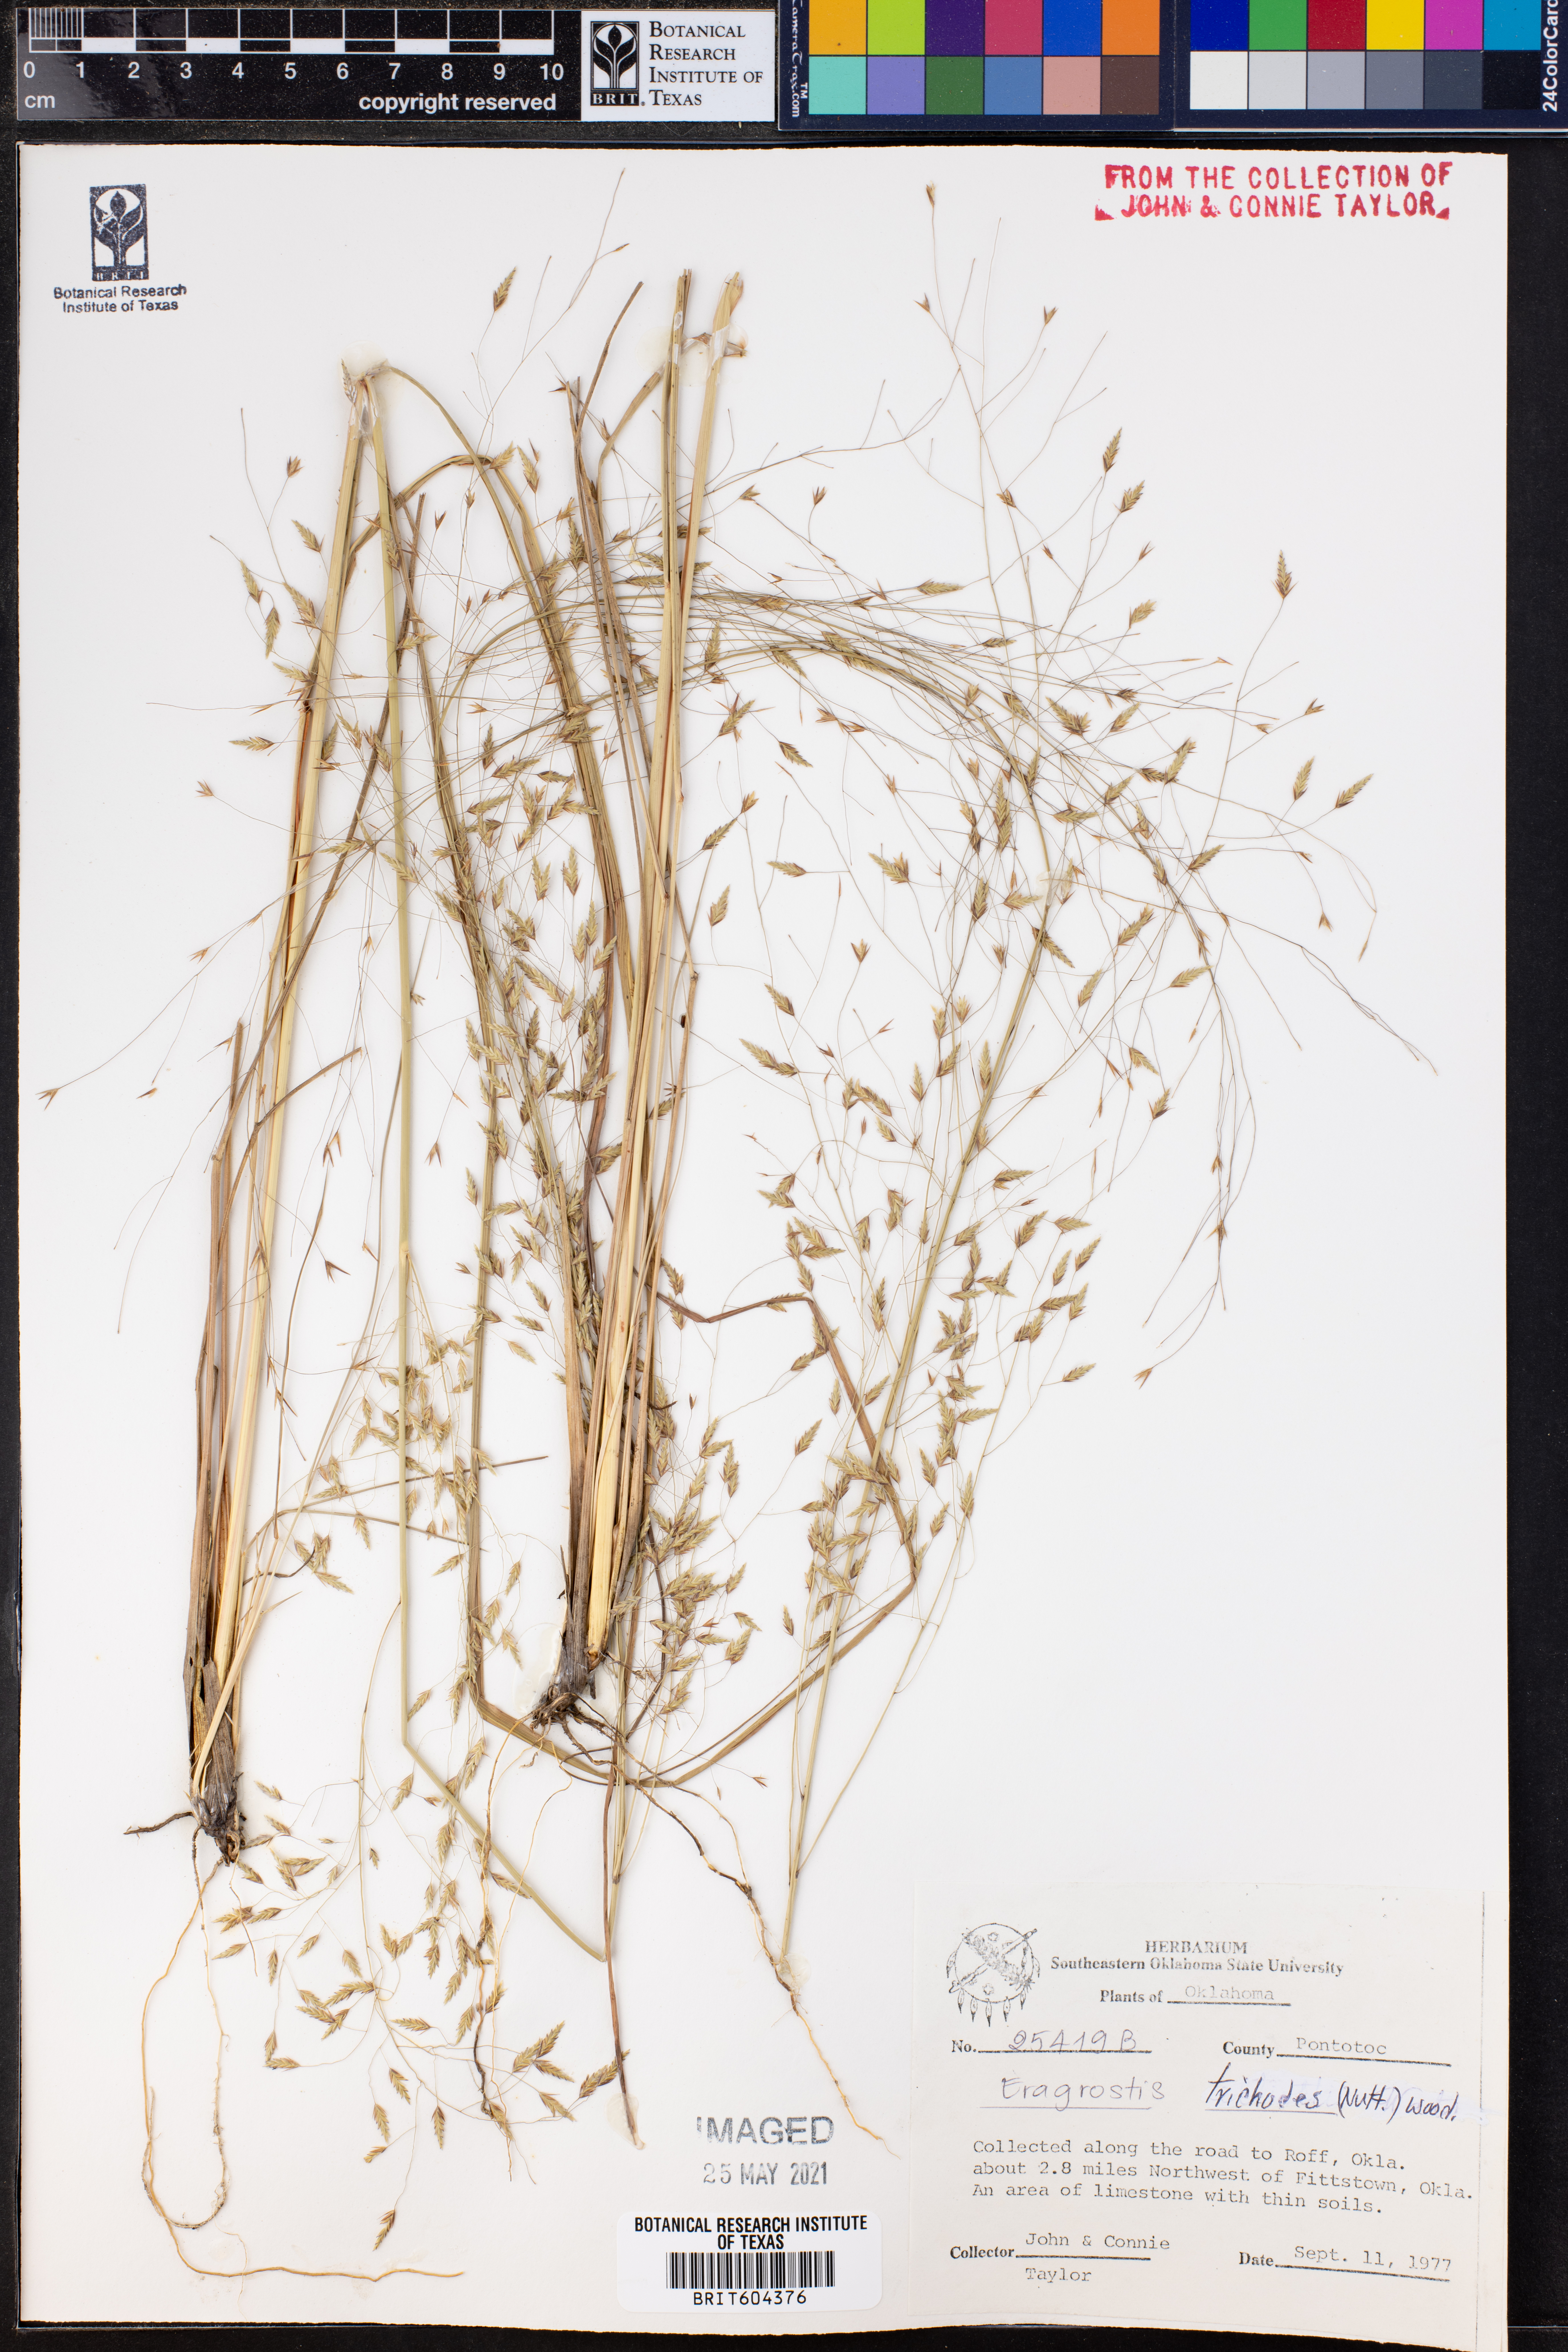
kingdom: Plantae
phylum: Tracheophyta
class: Liliopsida
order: Poales
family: Poaceae
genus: Eragrostis
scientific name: Eragrostis trichodes
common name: Sand love grass
